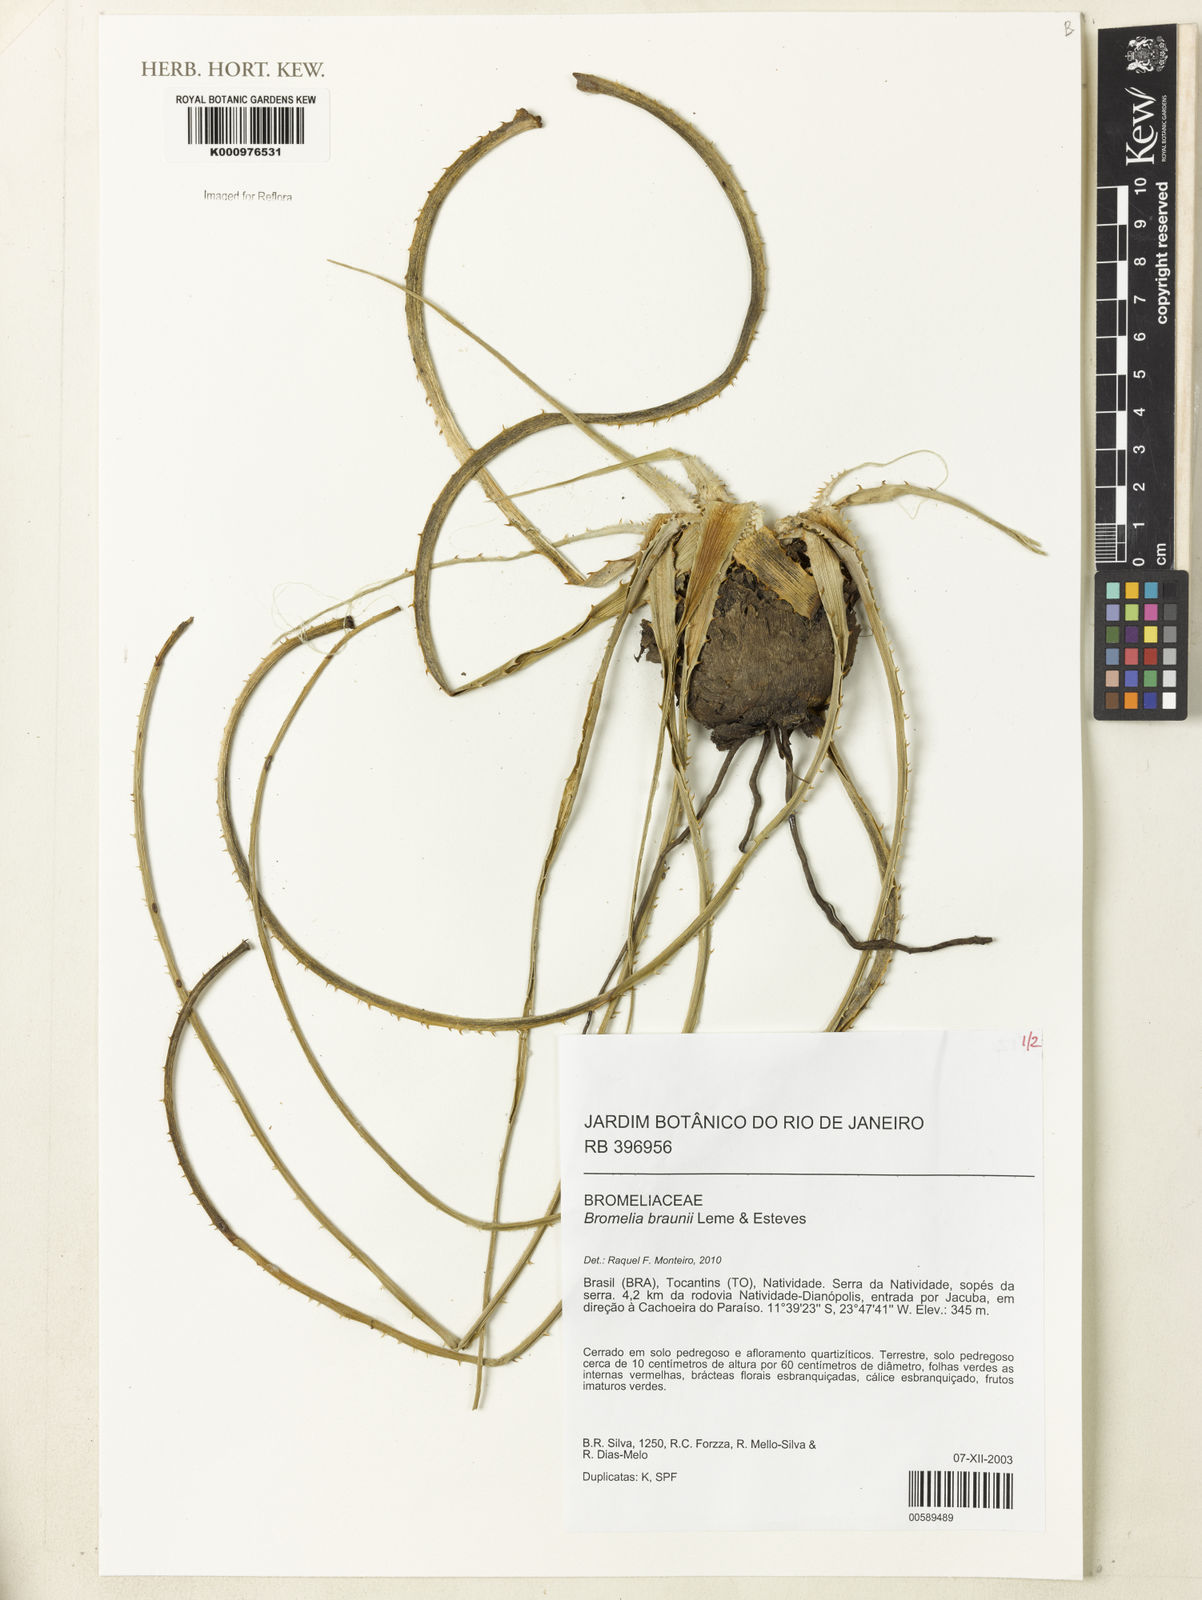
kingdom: Plantae
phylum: Tracheophyta
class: Liliopsida
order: Poales
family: Bromeliaceae
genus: Bromelia
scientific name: Bromelia braunii
